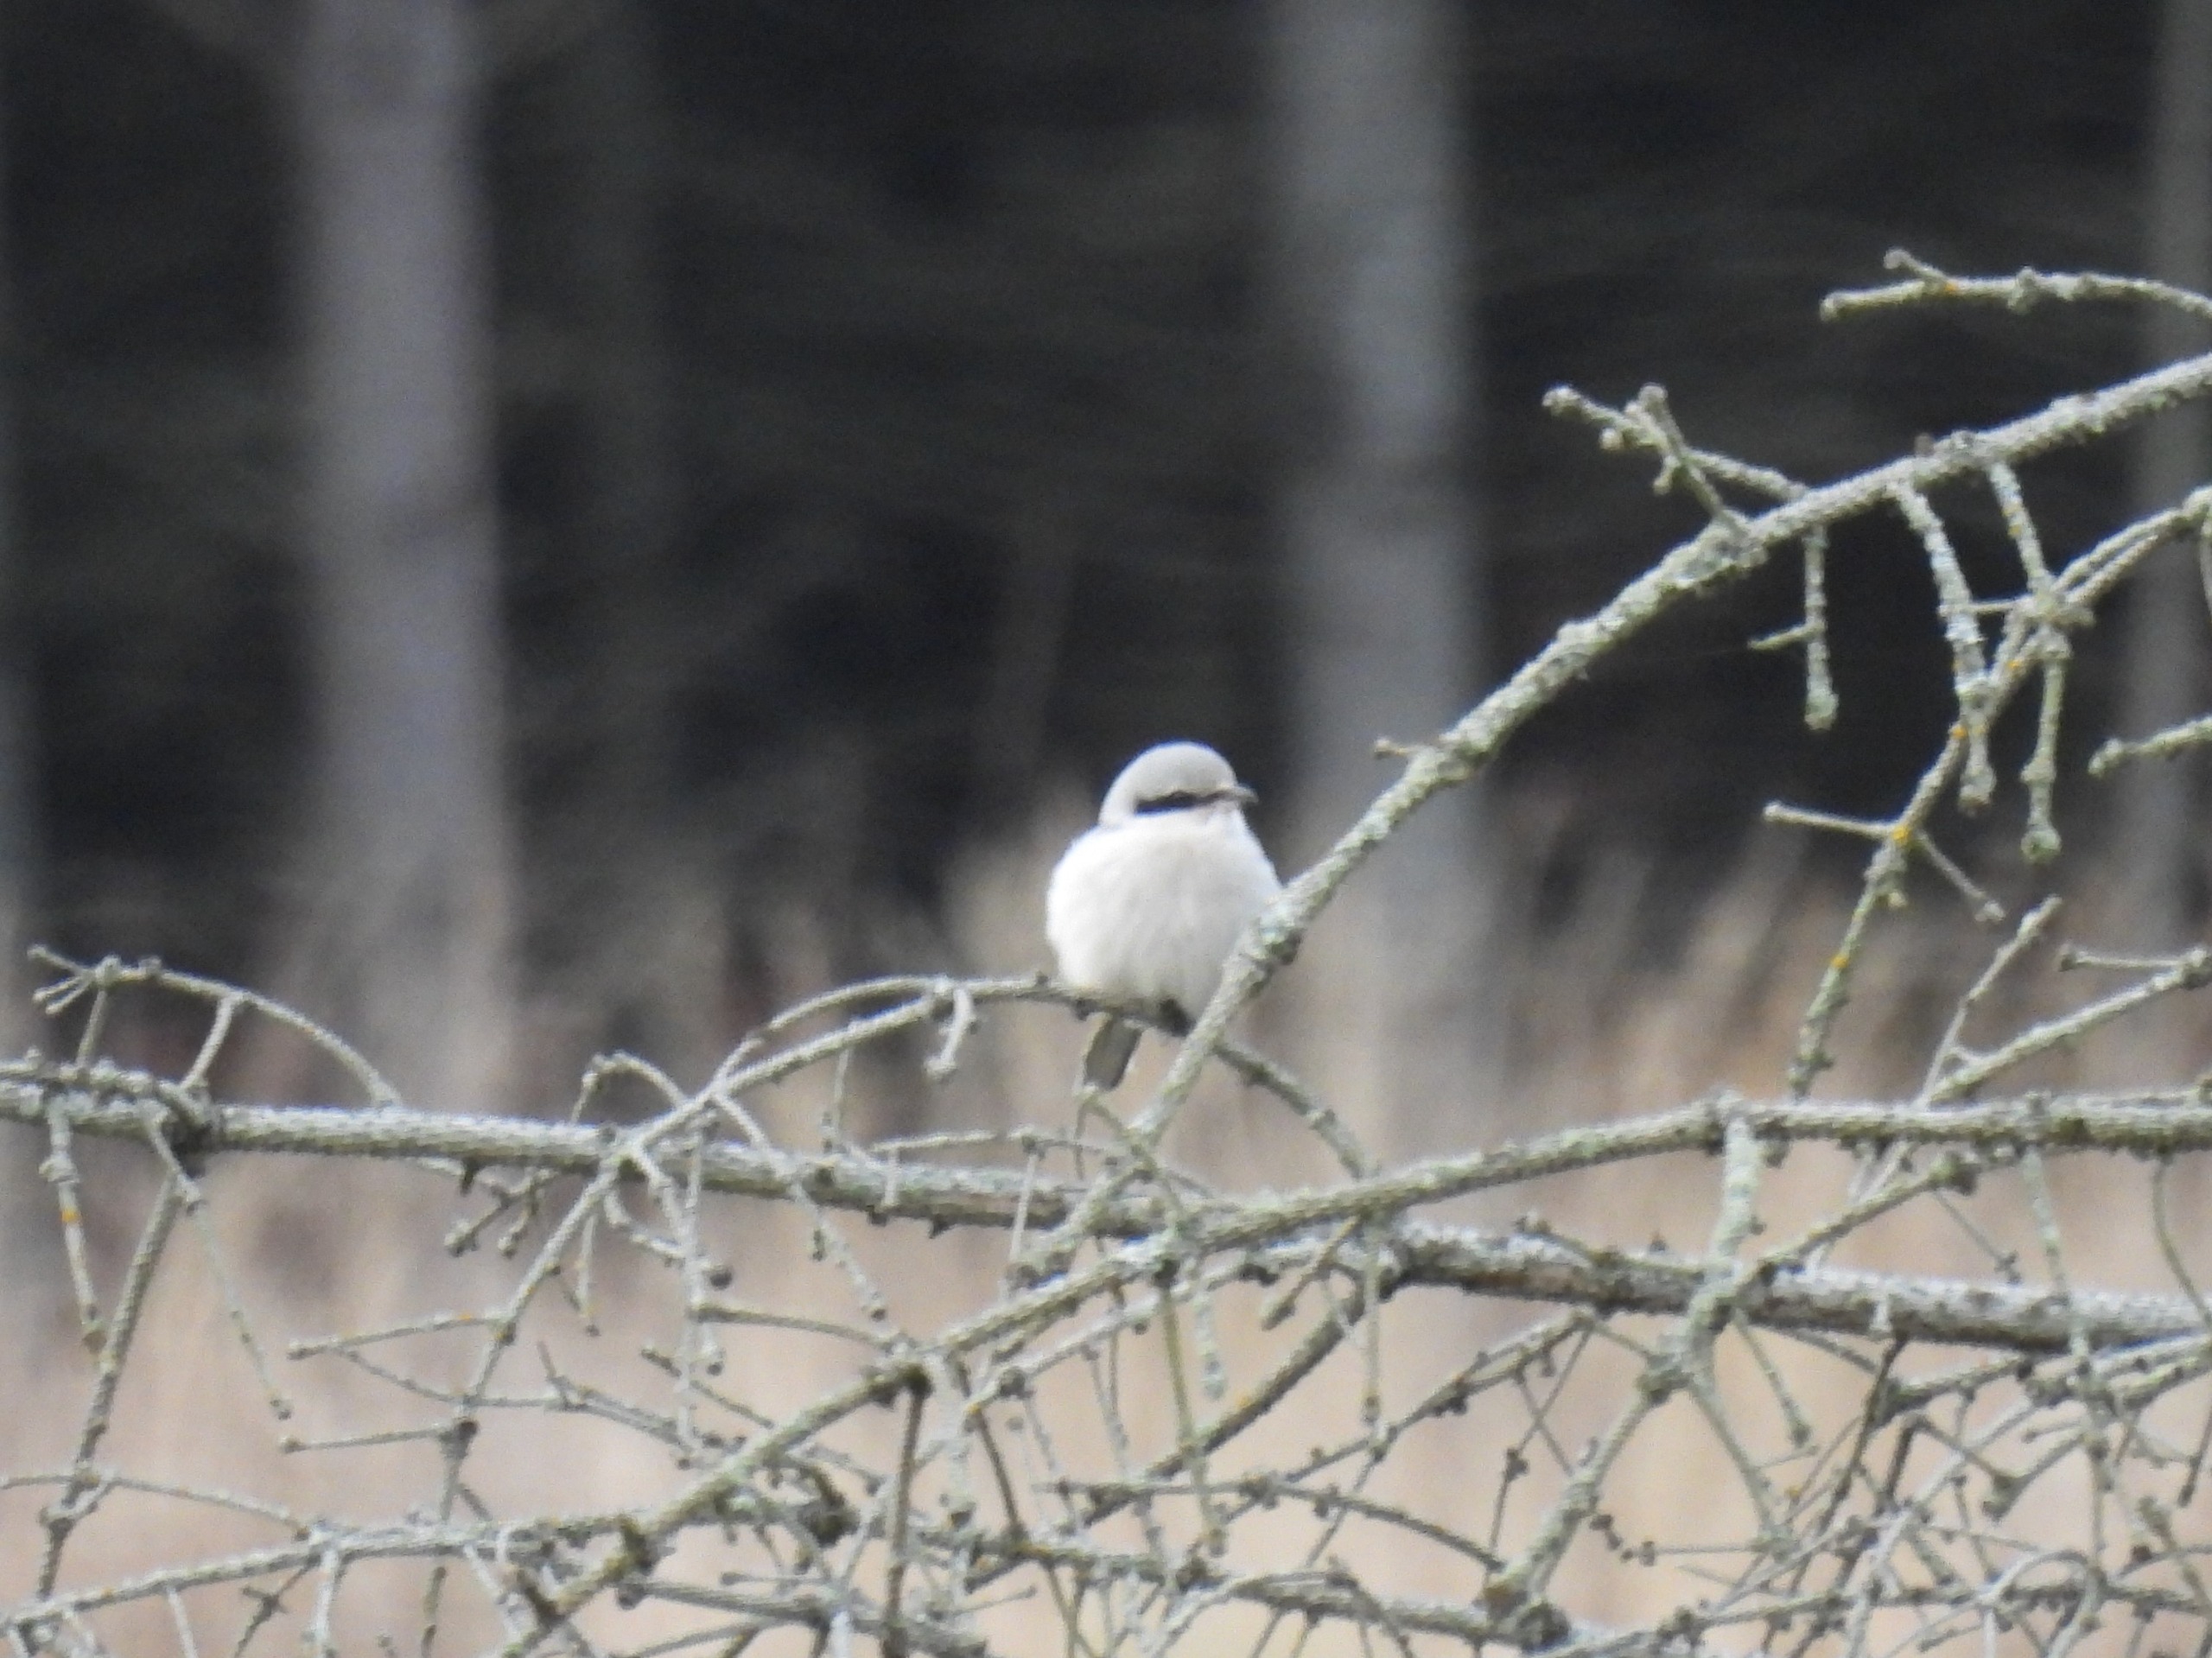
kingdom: Animalia
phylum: Chordata
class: Aves
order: Passeriformes
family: Laniidae
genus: Lanius
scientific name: Lanius excubitor
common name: Stor tornskade
